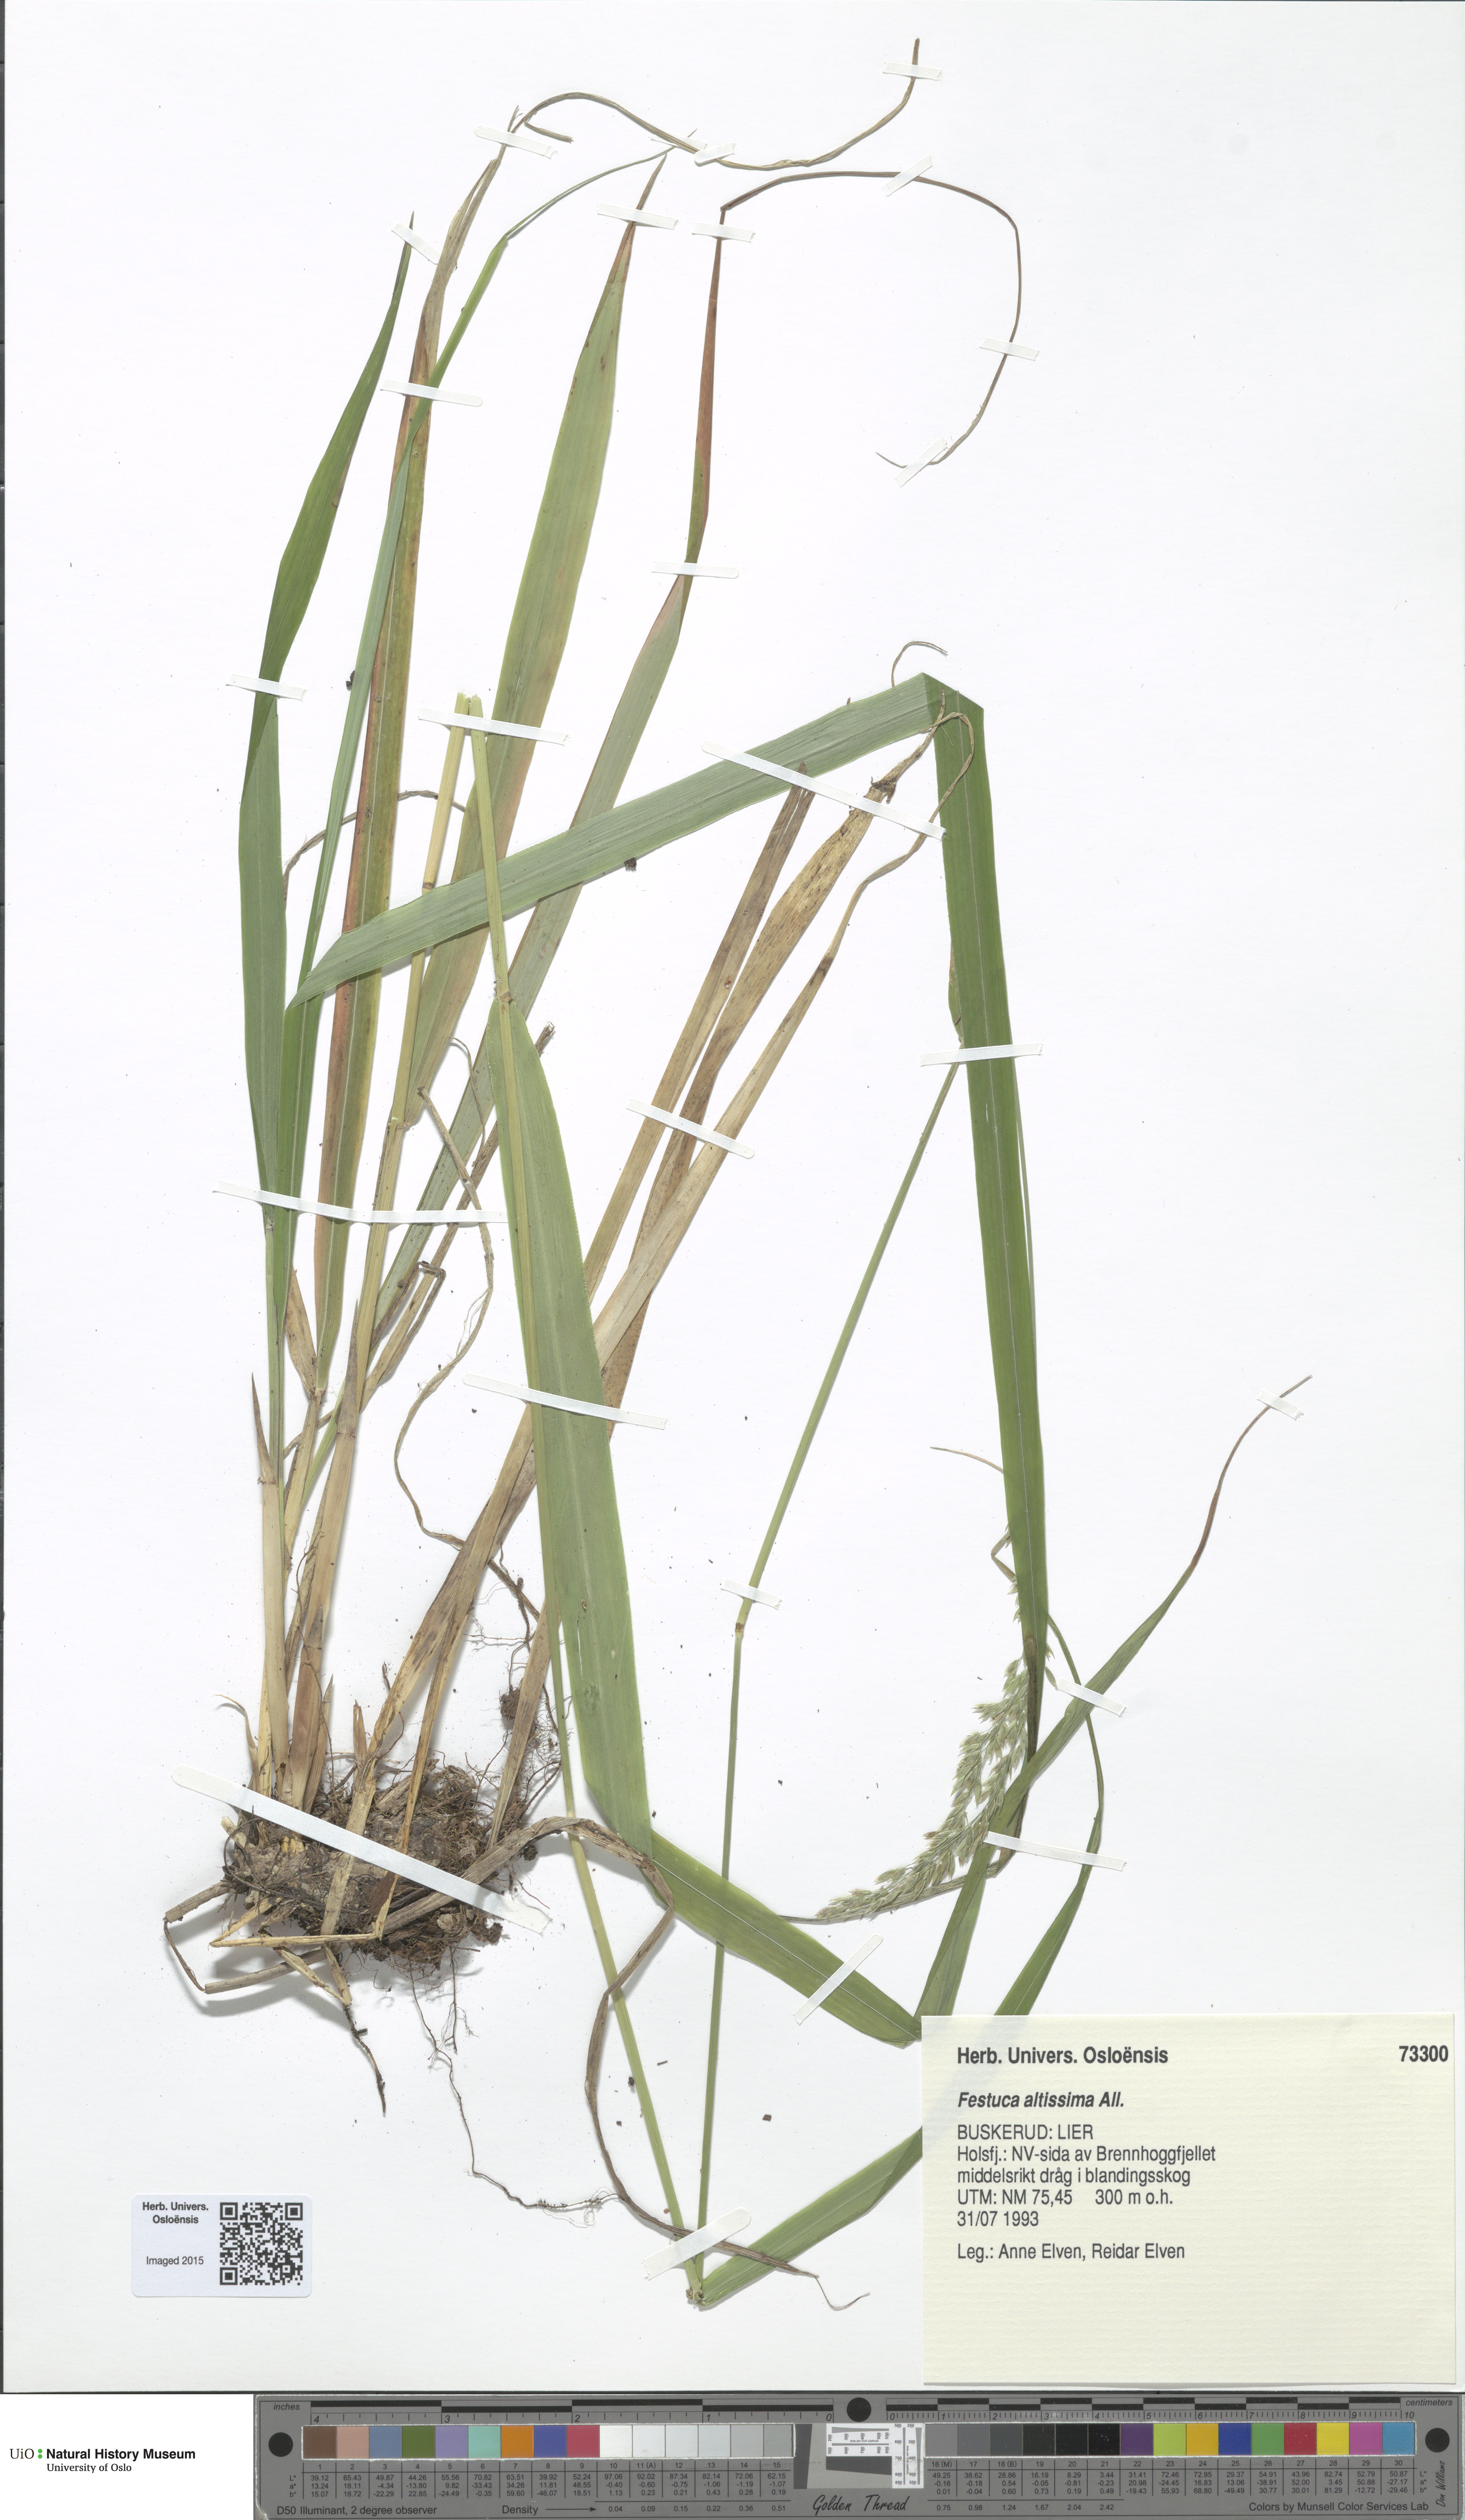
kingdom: Plantae
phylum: Tracheophyta
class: Liliopsida
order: Poales
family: Poaceae
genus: Festuca
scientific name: Festuca altissima
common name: Wood fescue
